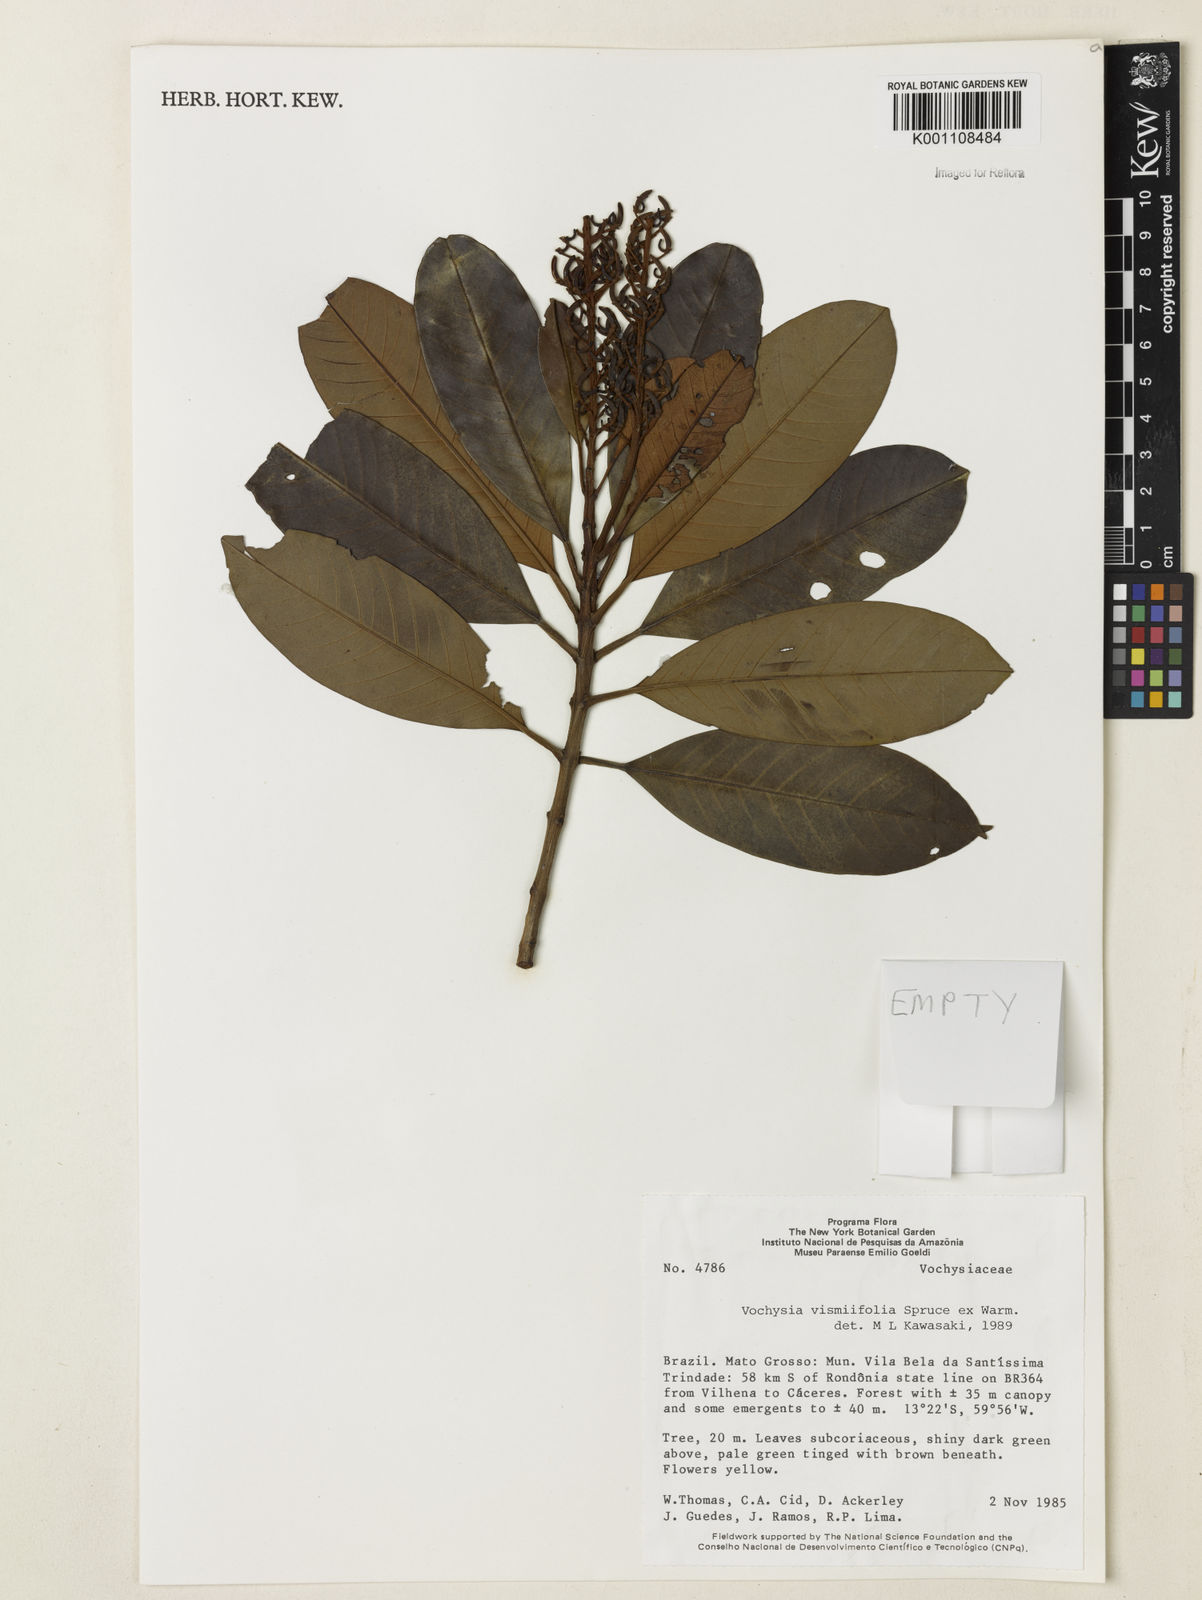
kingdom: Plantae
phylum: Tracheophyta
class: Magnoliopsida
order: Myrtales
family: Vochysiaceae
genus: Vochysia
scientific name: Vochysia vismiifolia
